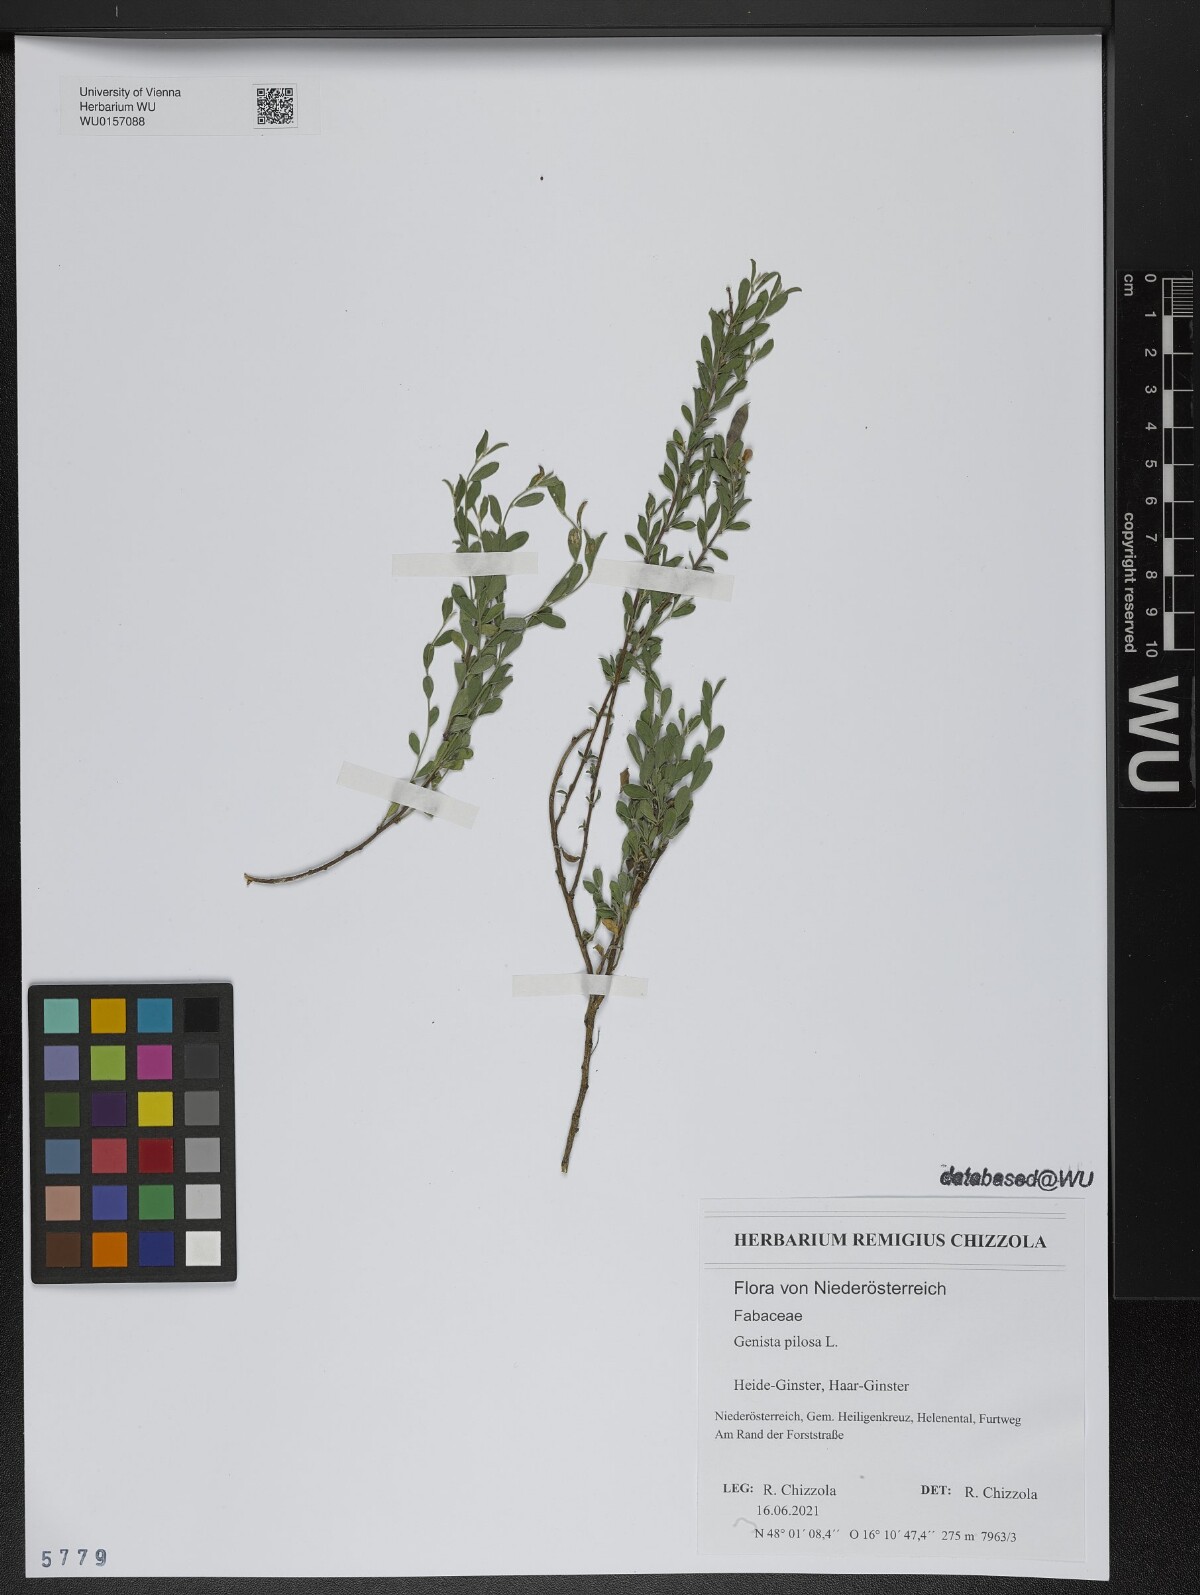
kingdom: Plantae
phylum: Tracheophyta
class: Magnoliopsida
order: Fabales
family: Fabaceae
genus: Genista
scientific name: Genista pilosa
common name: Hairy greenweed
